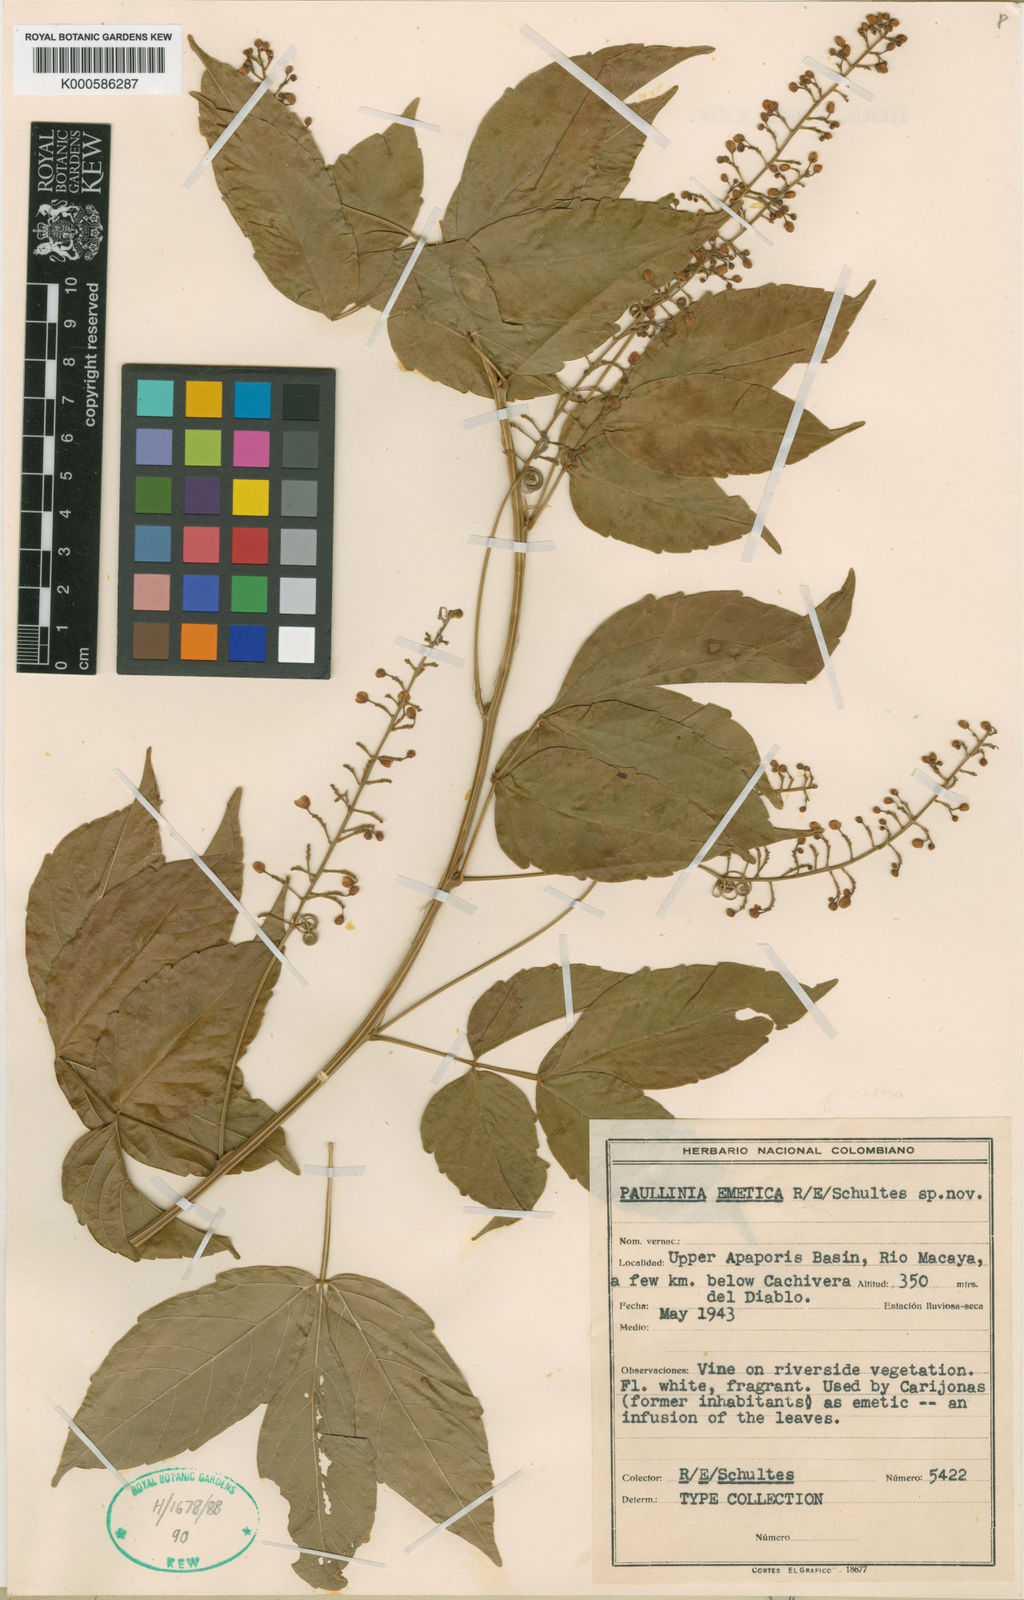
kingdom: Plantae
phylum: Tracheophyta
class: Magnoliopsida
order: Sapindales
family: Sapindaceae
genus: Paullinia
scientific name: Paullinia emetica
